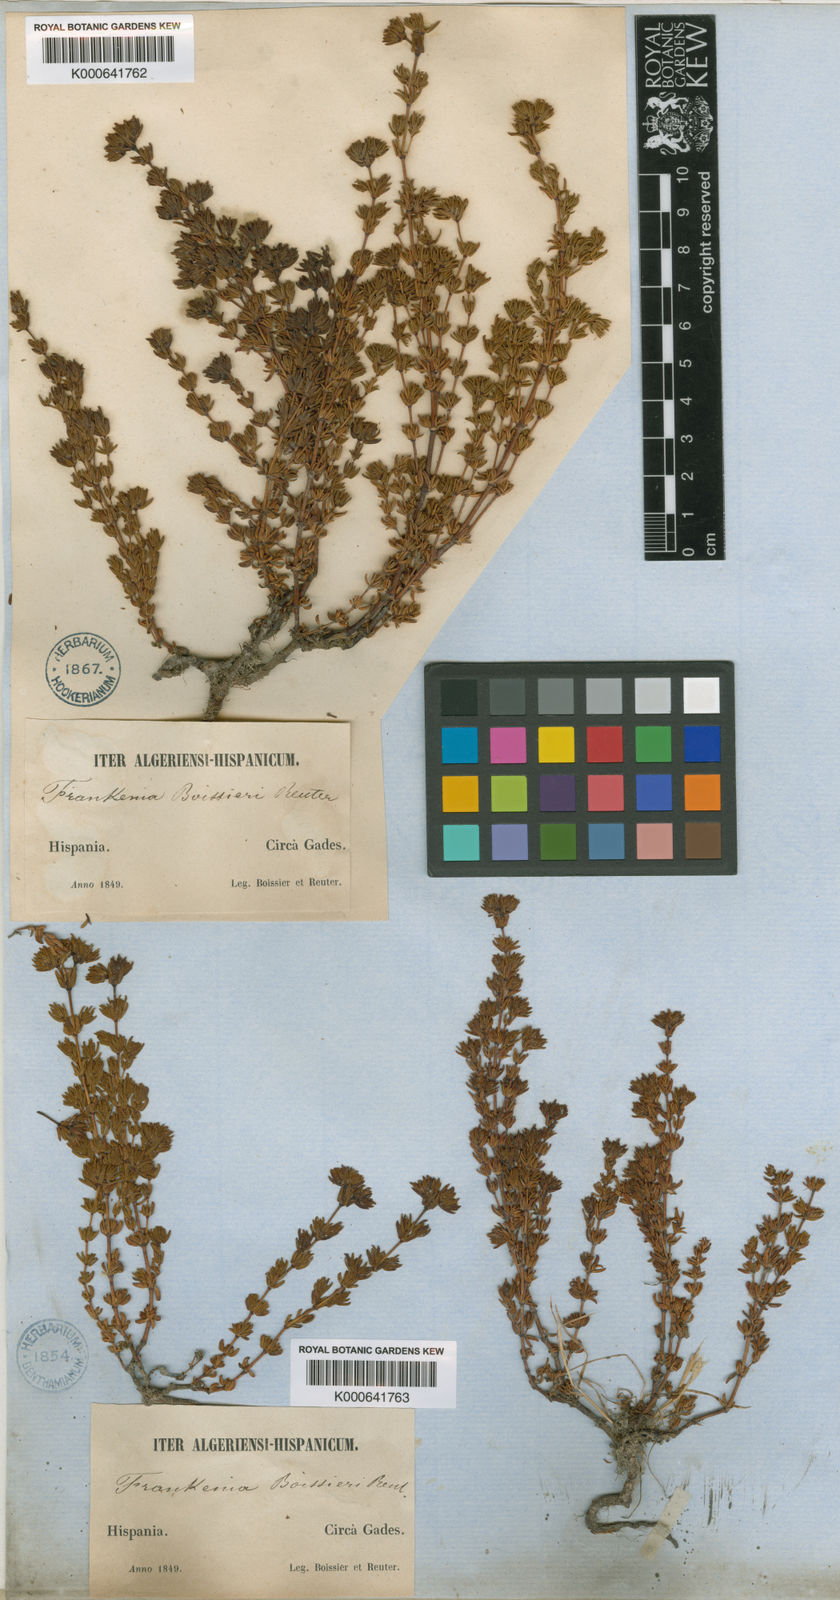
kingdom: Plantae
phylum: Tracheophyta
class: Magnoliopsida
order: Caryophyllales
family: Frankeniaceae
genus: Frankenia
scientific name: Frankenia boissieri
